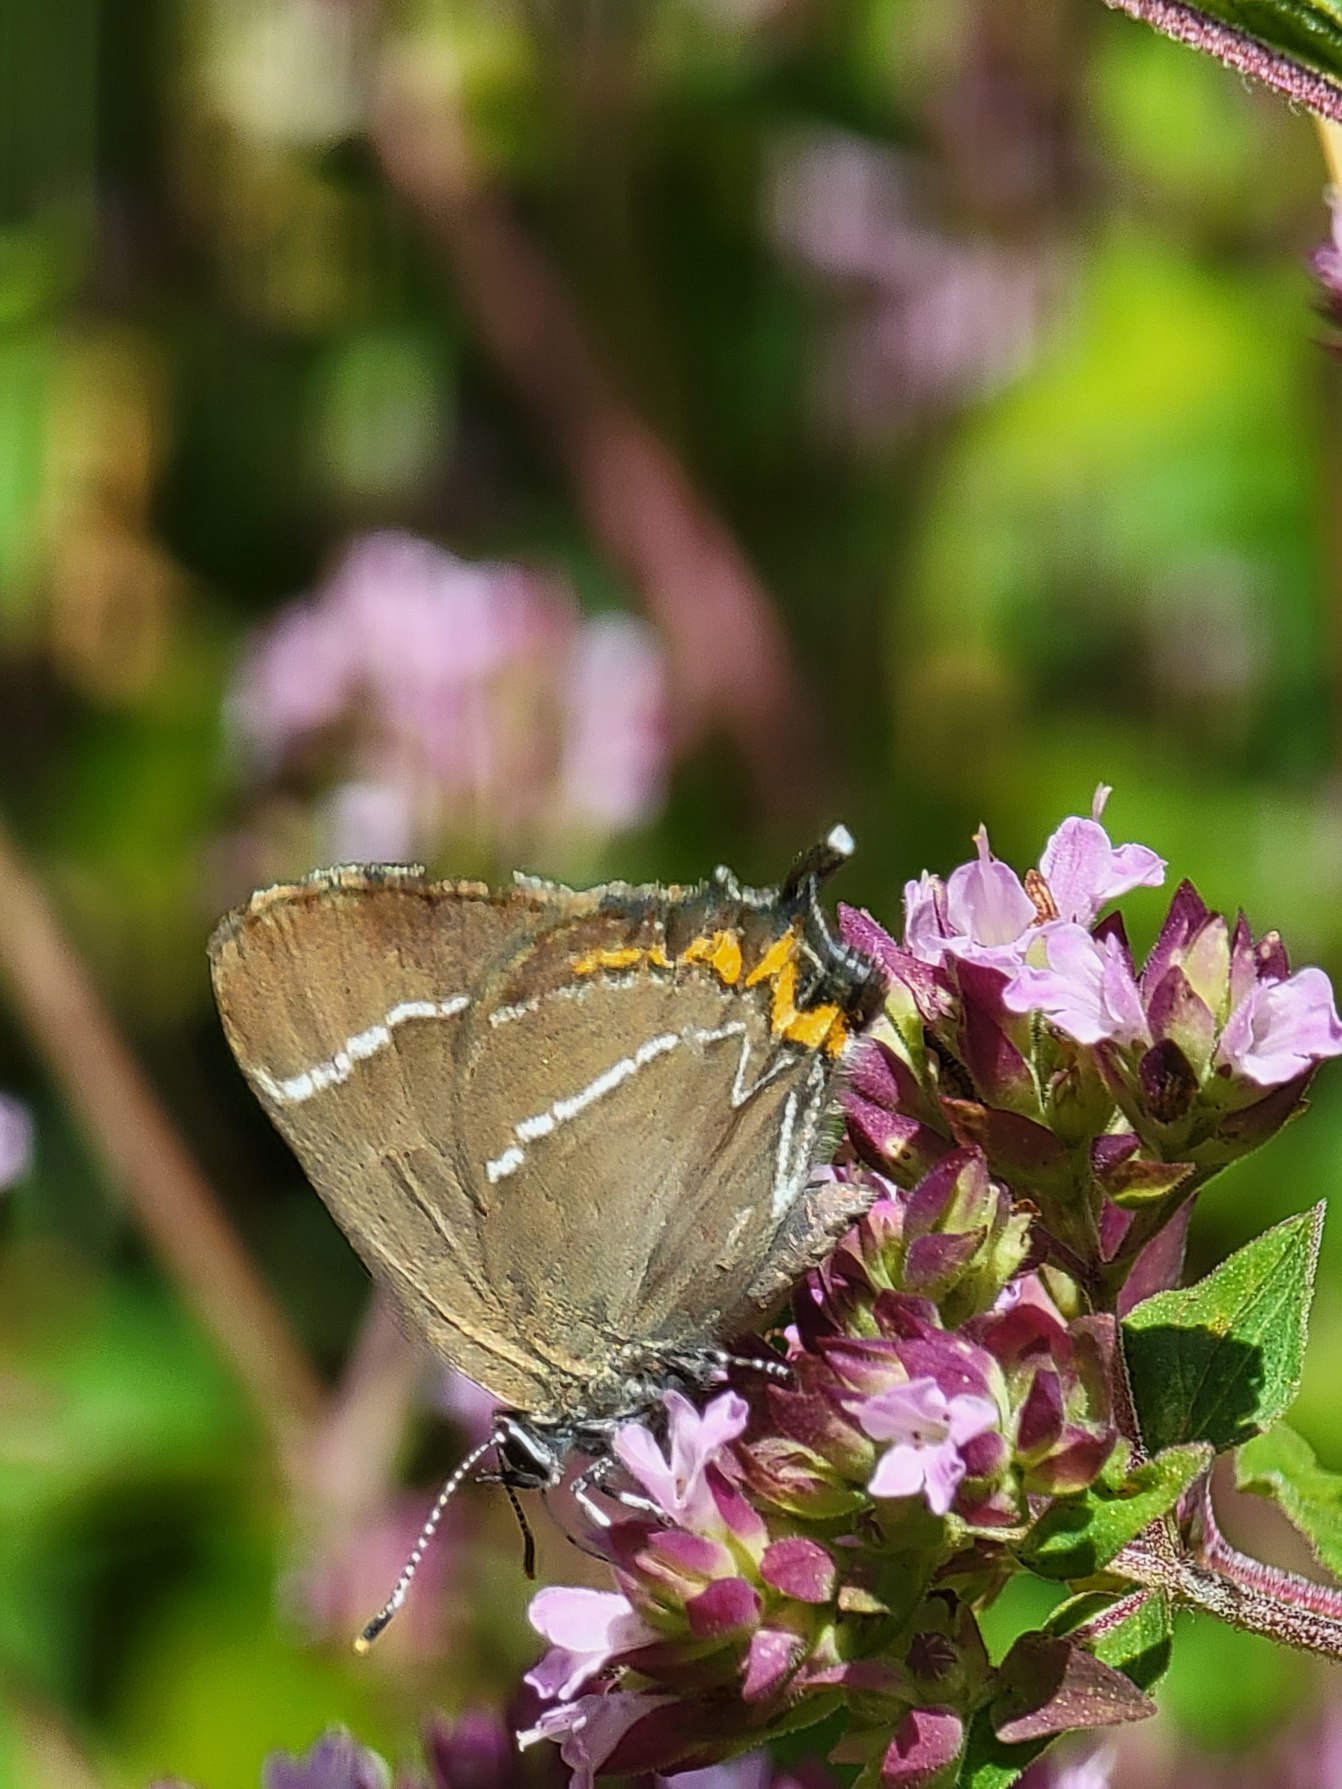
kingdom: Animalia
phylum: Arthropoda
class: Insecta
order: Lepidoptera
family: Lycaenidae
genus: Satyrium
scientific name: Satyrium w-album
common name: Det hvide W
